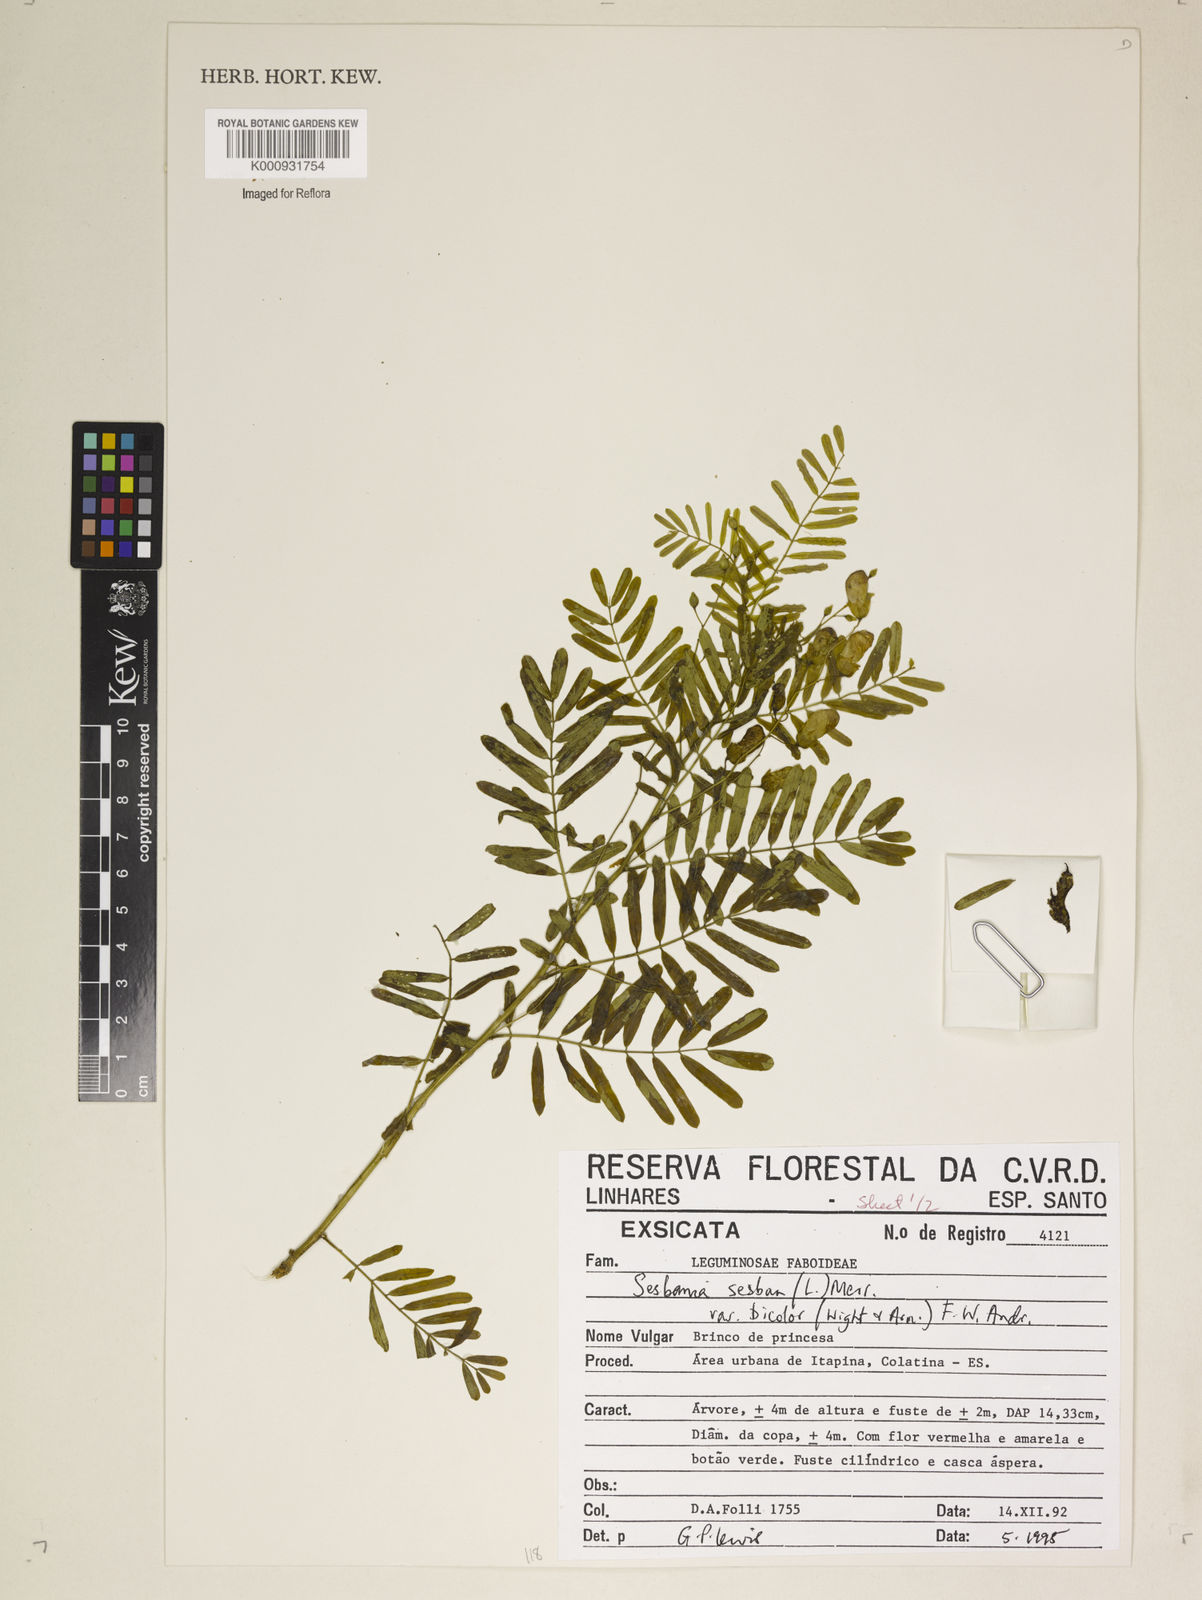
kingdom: Plantae
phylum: Tracheophyta
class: Magnoliopsida
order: Fabales
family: Fabaceae
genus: Sesbania
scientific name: Sesbania
